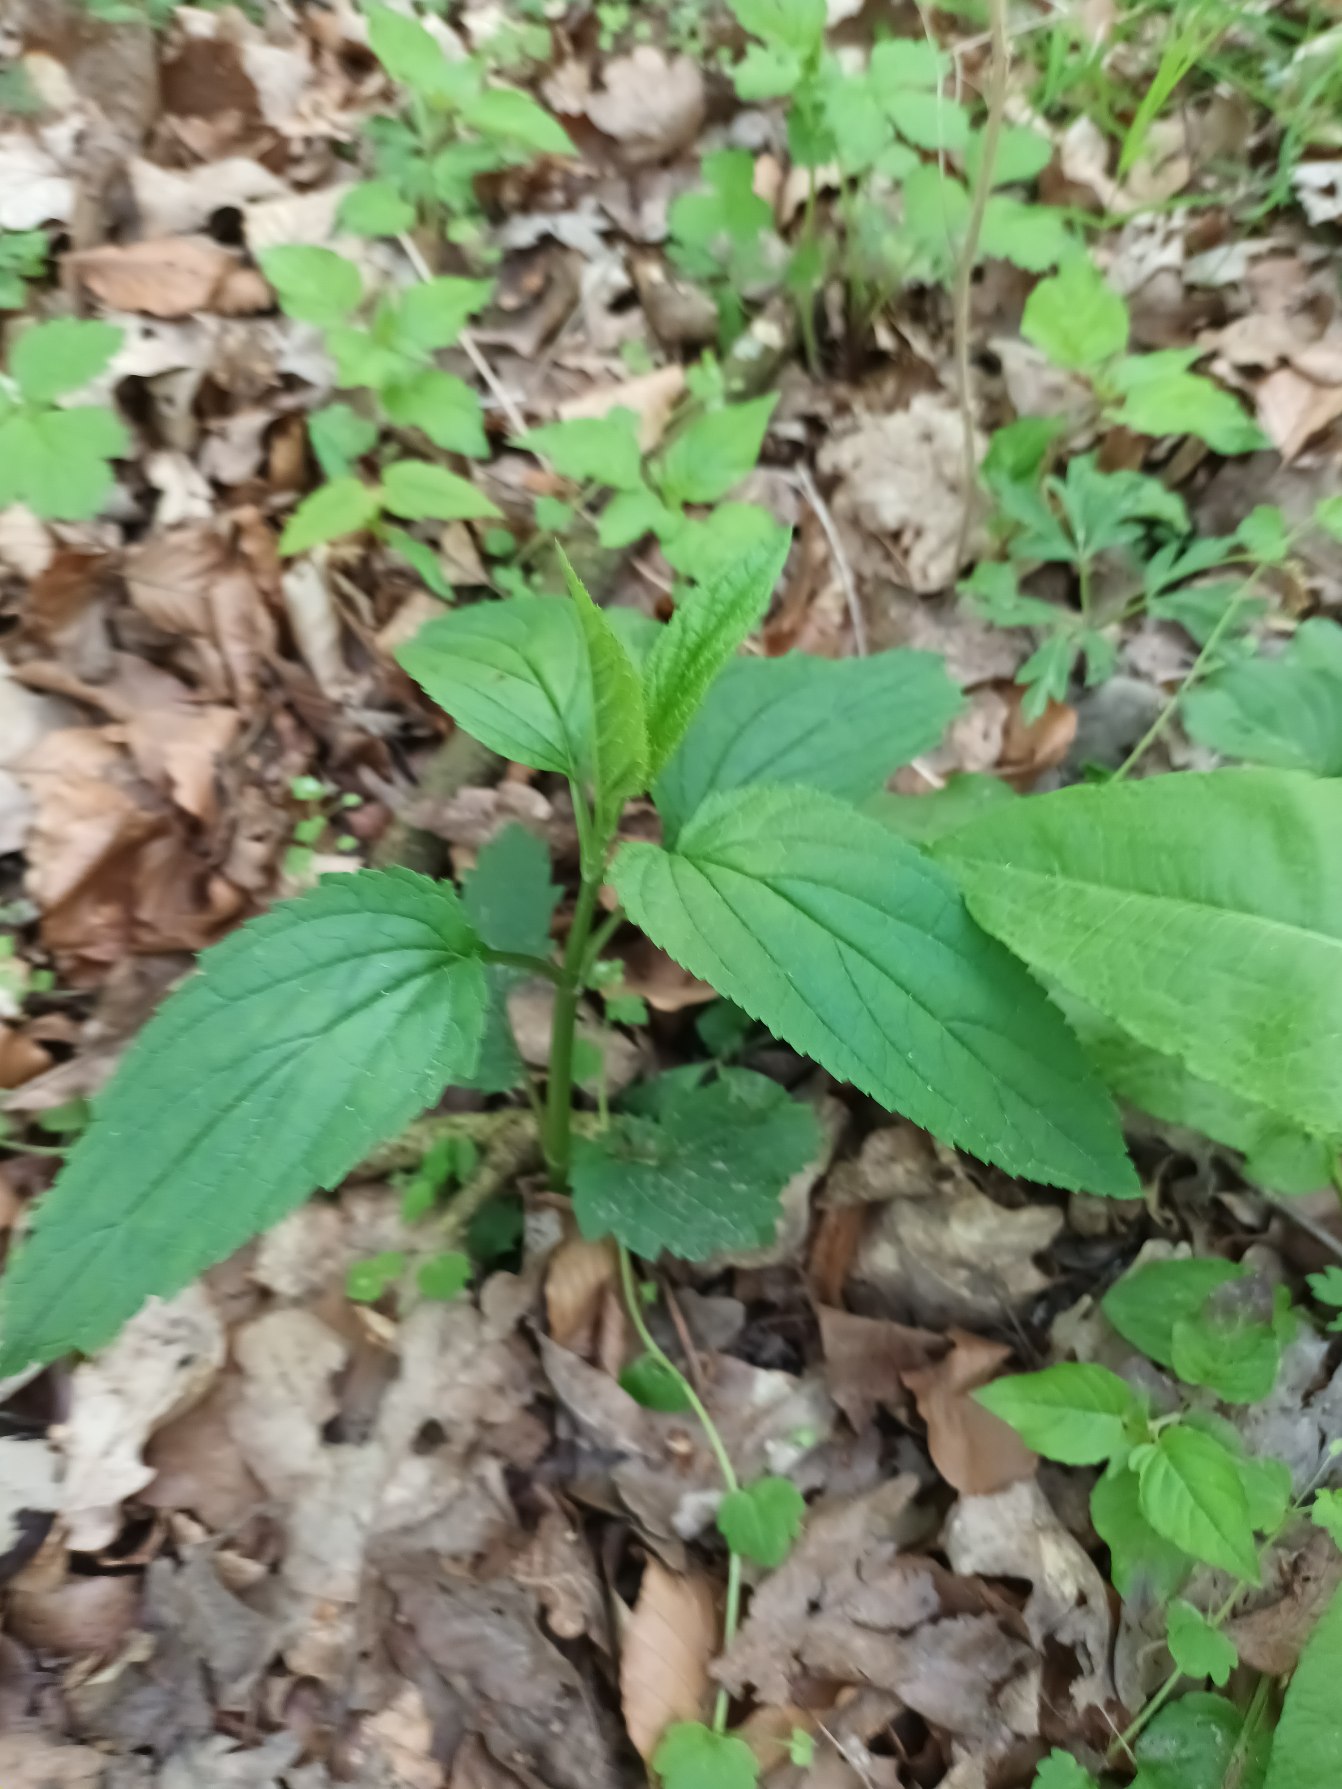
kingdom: Plantae
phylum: Tracheophyta
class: Magnoliopsida
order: Lamiales
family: Scrophulariaceae
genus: Scrophularia
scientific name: Scrophularia nodosa
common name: Knoldet brunrod
